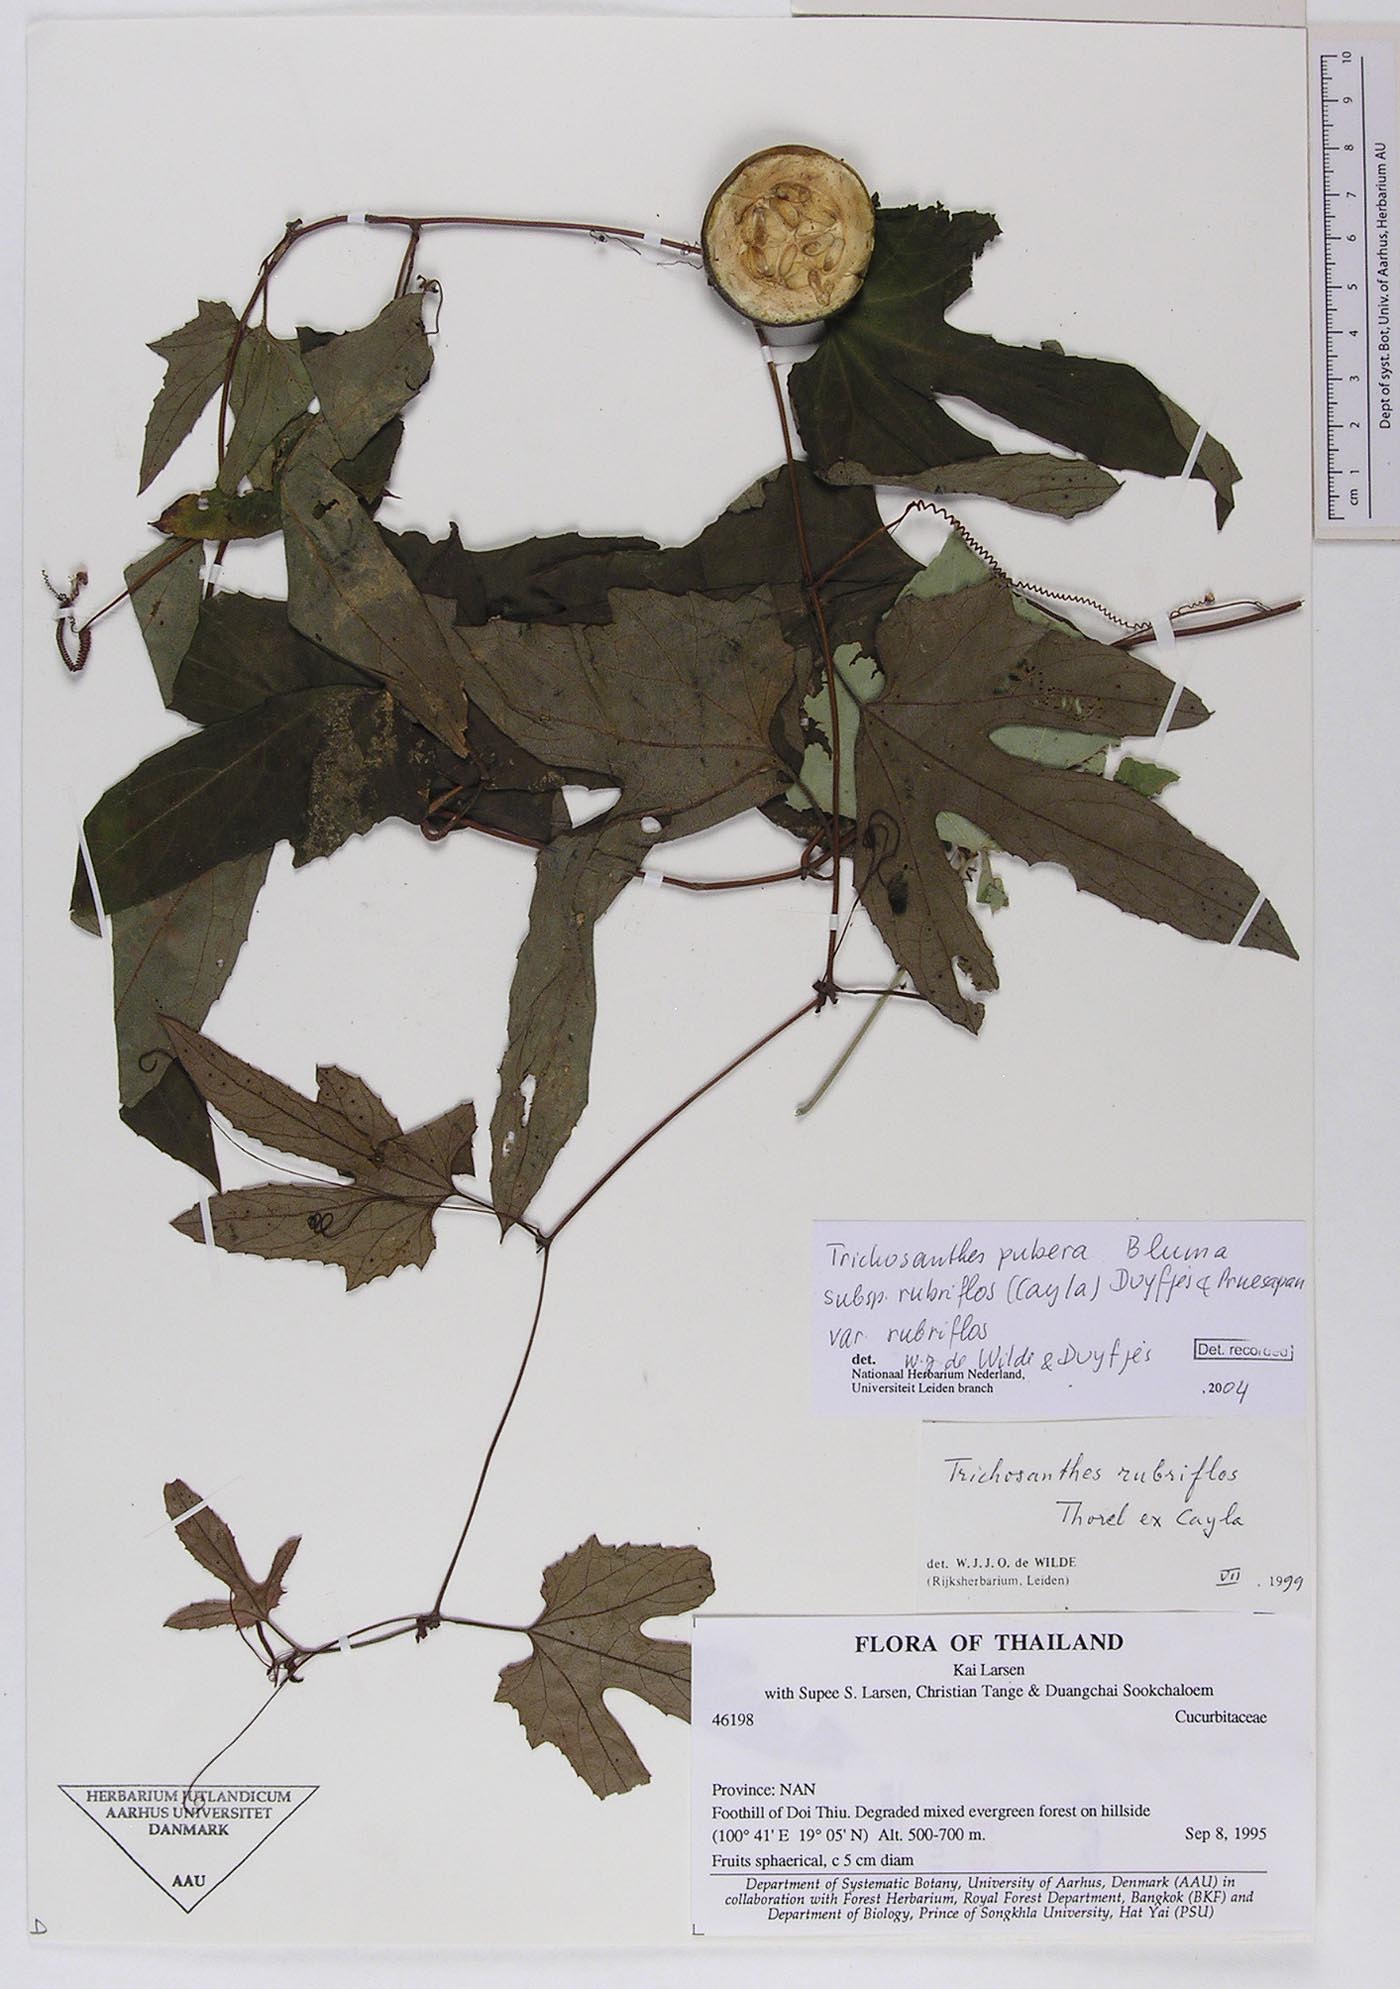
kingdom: Plantae
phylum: Tracheophyta
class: Magnoliopsida
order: Cucurbitales
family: Cucurbitaceae
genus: Trichosanthes
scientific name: Trichosanthes rubriflos
